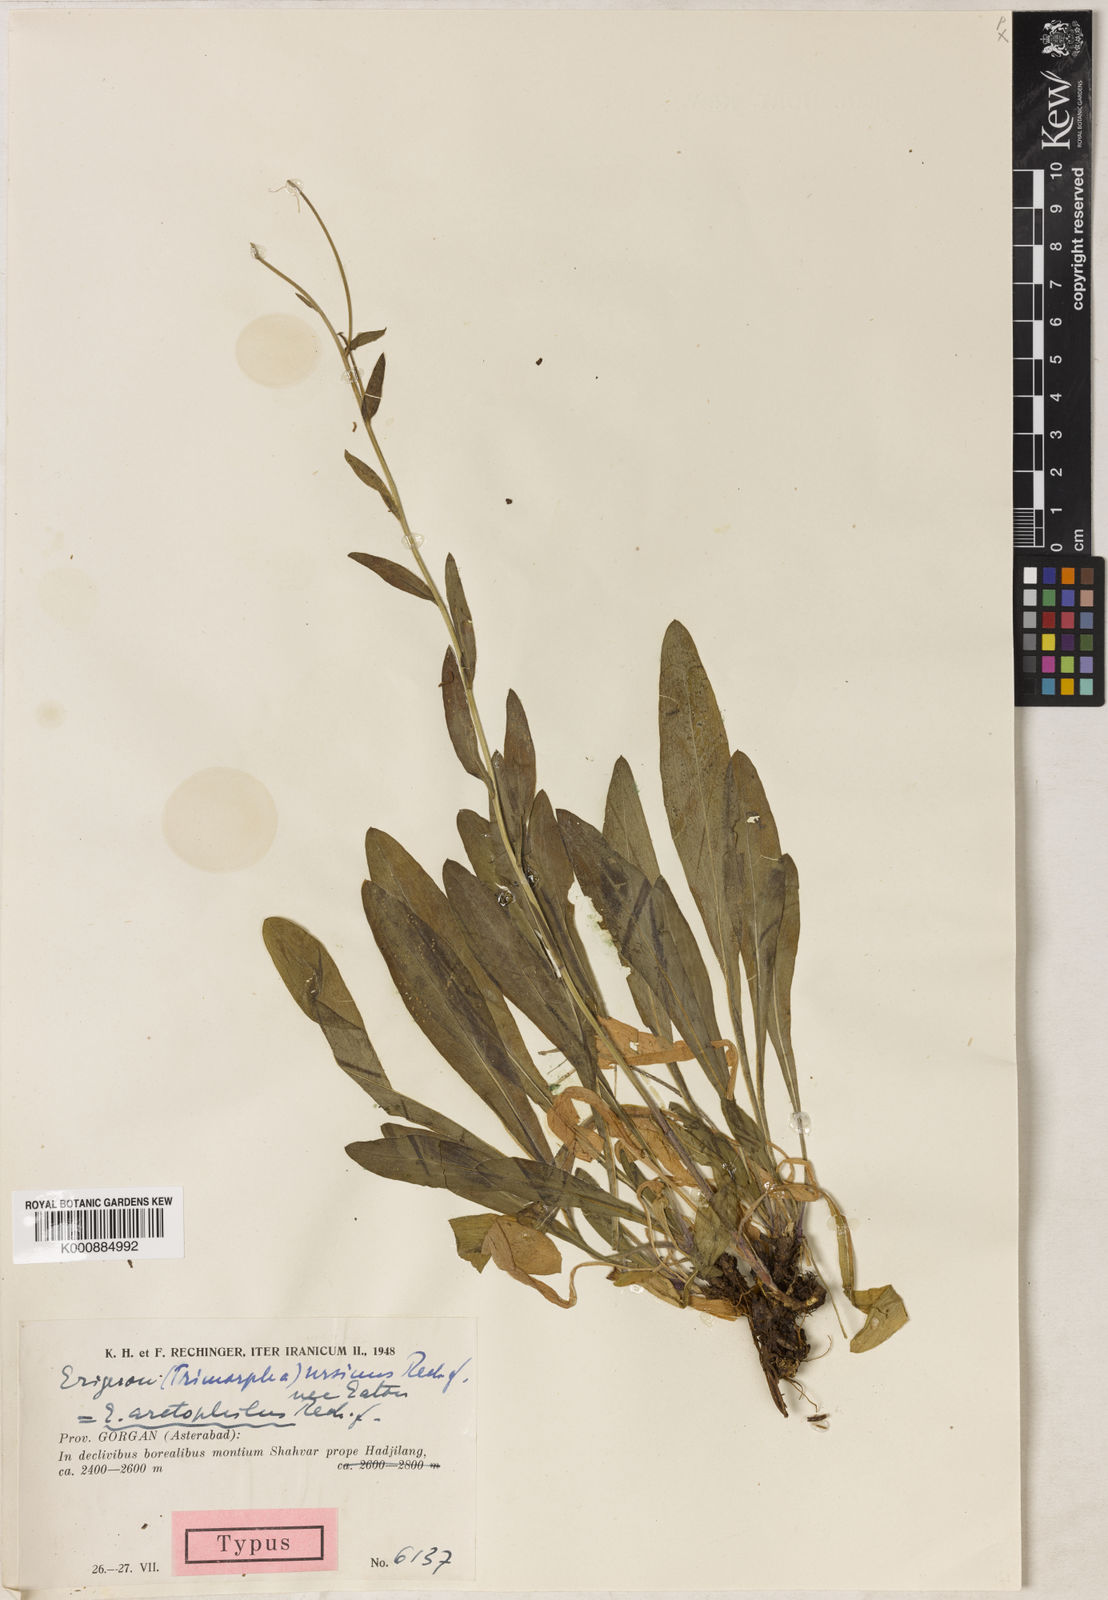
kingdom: Plantae
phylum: Tracheophyta
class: Magnoliopsida
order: Asterales
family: Asteraceae
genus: Erigeron
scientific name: Erigeron ursinus
